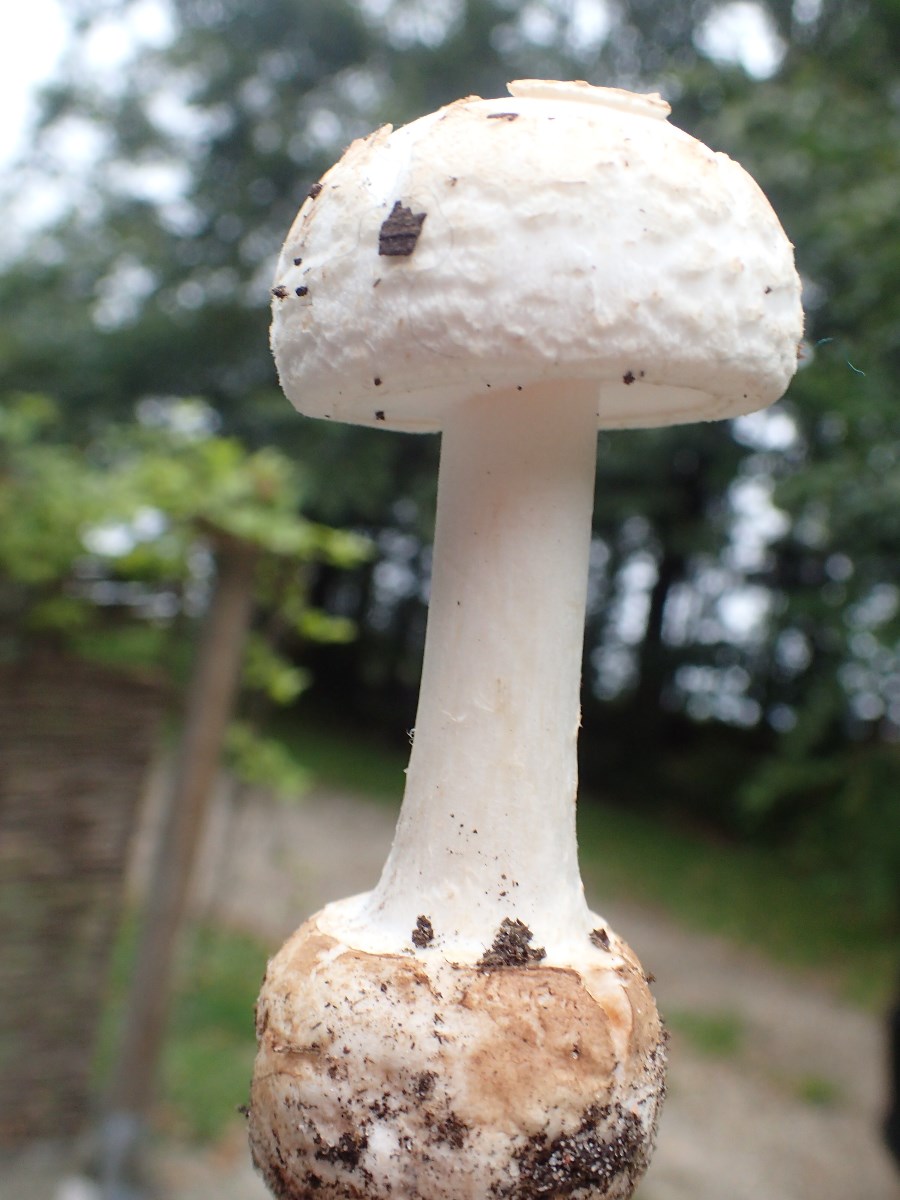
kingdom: Fungi
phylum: Basidiomycota
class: Agaricomycetes
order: Agaricales
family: Amanitaceae
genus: Amanita
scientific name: Amanita citrina
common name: kugleknoldet fluesvamp
